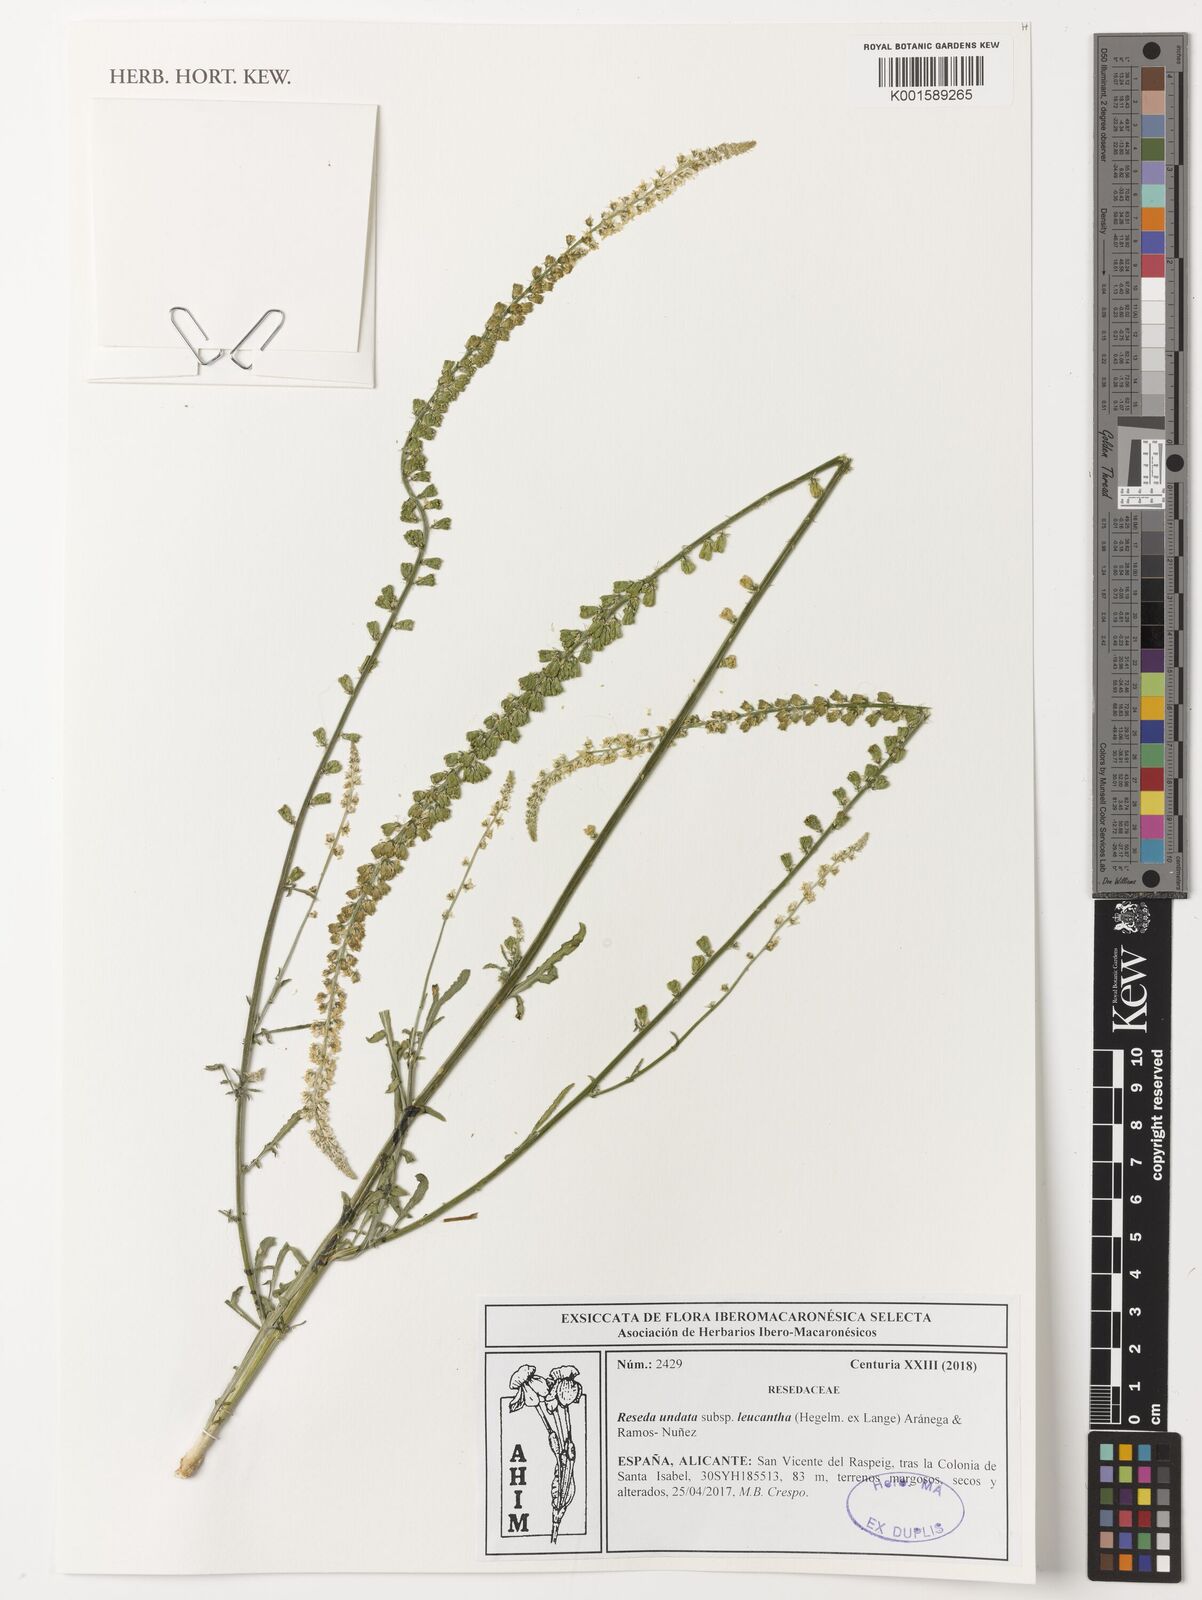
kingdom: Plantae
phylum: Tracheophyta
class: Magnoliopsida
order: Brassicales
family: Resedaceae
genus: Reseda
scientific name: Reseda undata
